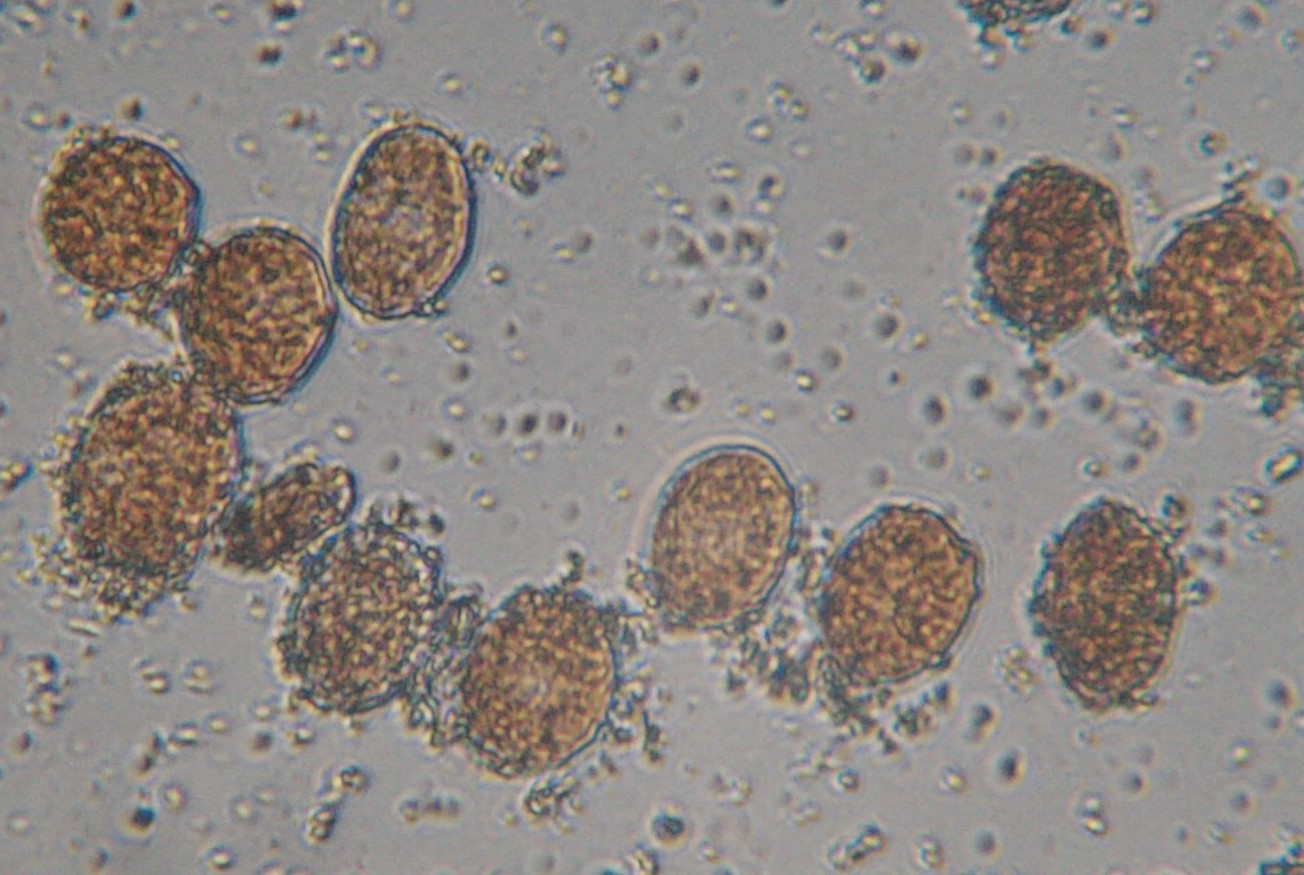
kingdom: Fungi
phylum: Basidiomycota
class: Pucciniomycetes
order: Pucciniales
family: Coleosporiaceae
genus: Coleosporium
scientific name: Coleosporium campanulae
